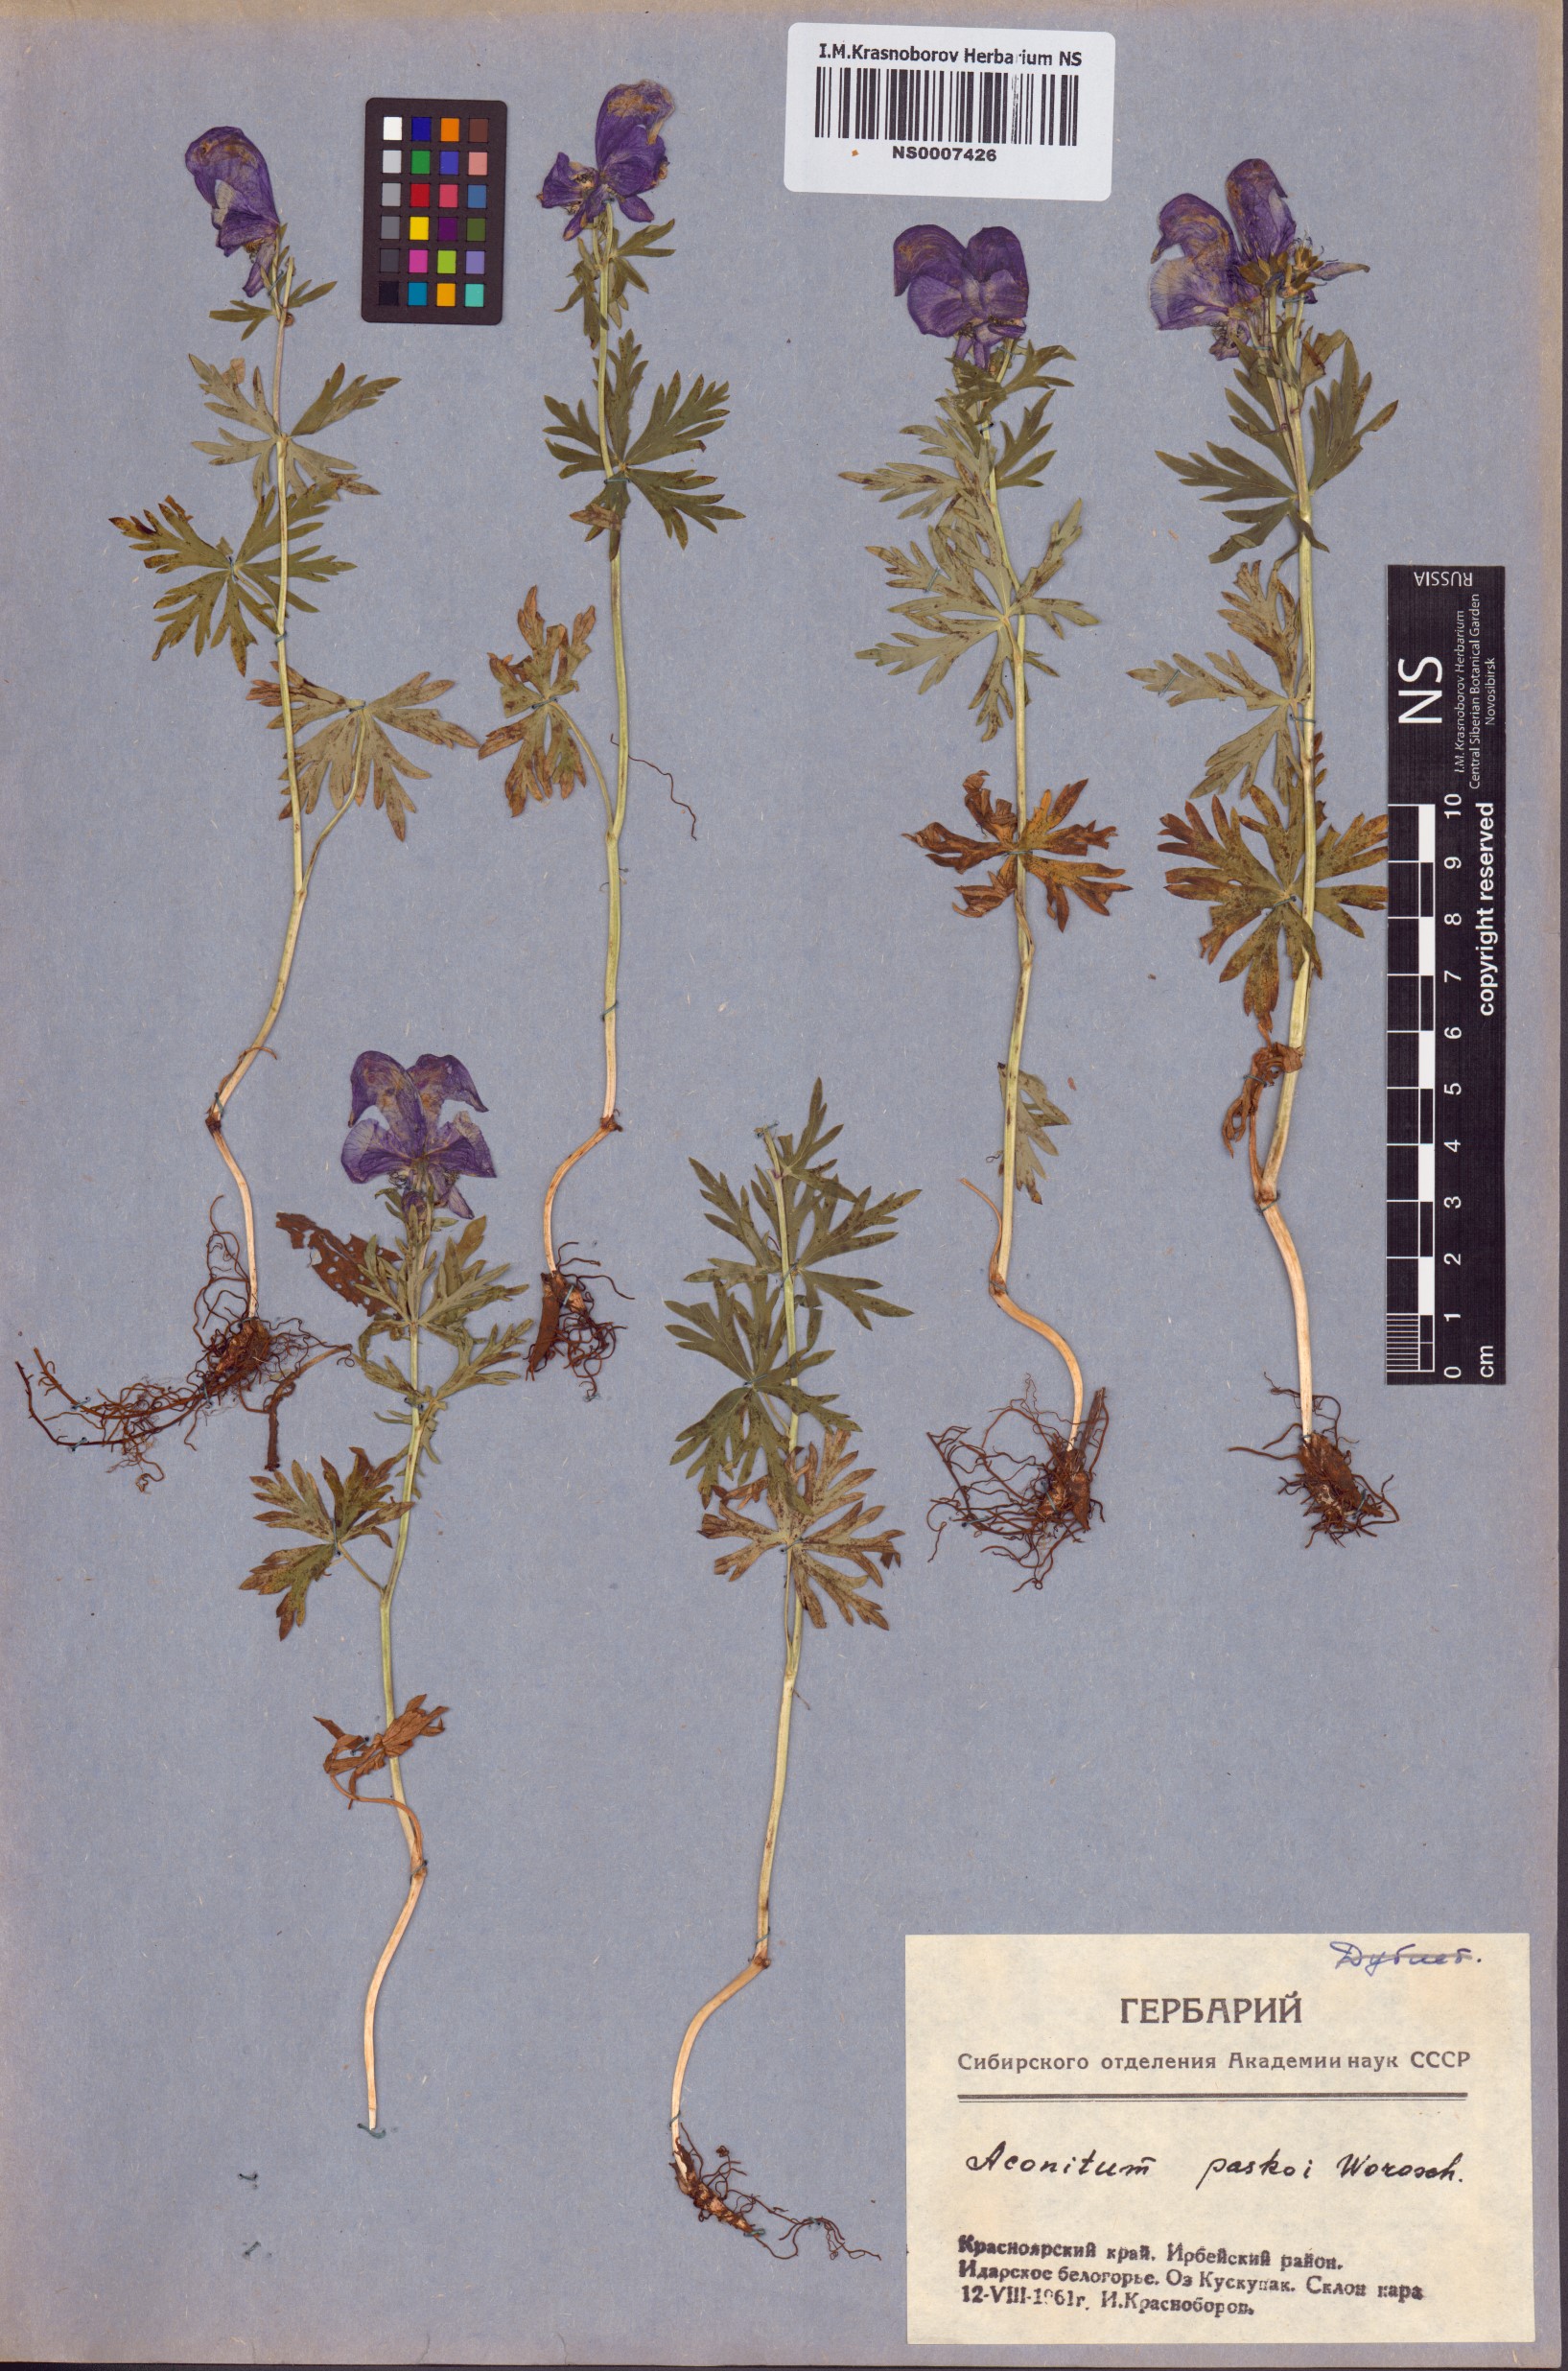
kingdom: Plantae
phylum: Tracheophyta
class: Magnoliopsida
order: Ranunculales
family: Ranunculaceae
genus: Aconitum
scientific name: Aconitum pascoi
